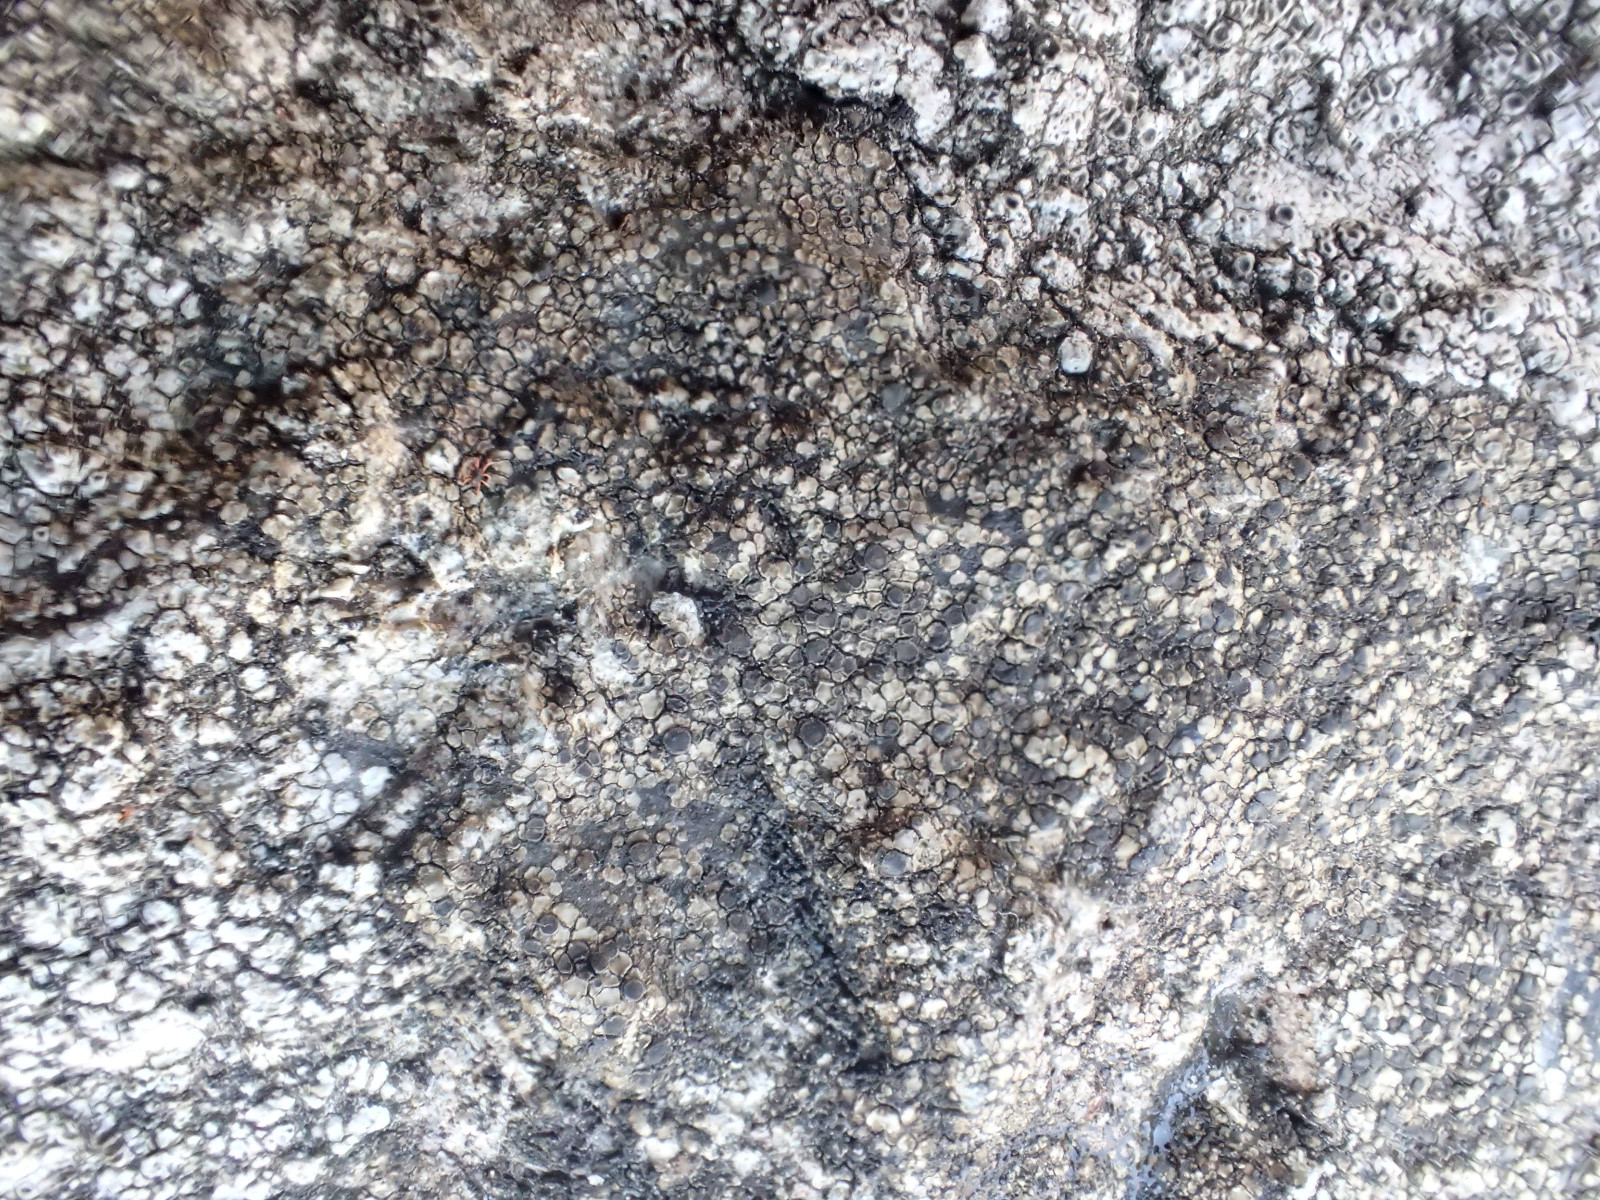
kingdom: Fungi
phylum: Ascomycota
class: Lecanoromycetes
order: Lecanorales
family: Lecanoraceae
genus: Lecidella
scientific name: Lecidella scabra
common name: skurvet skivelav
